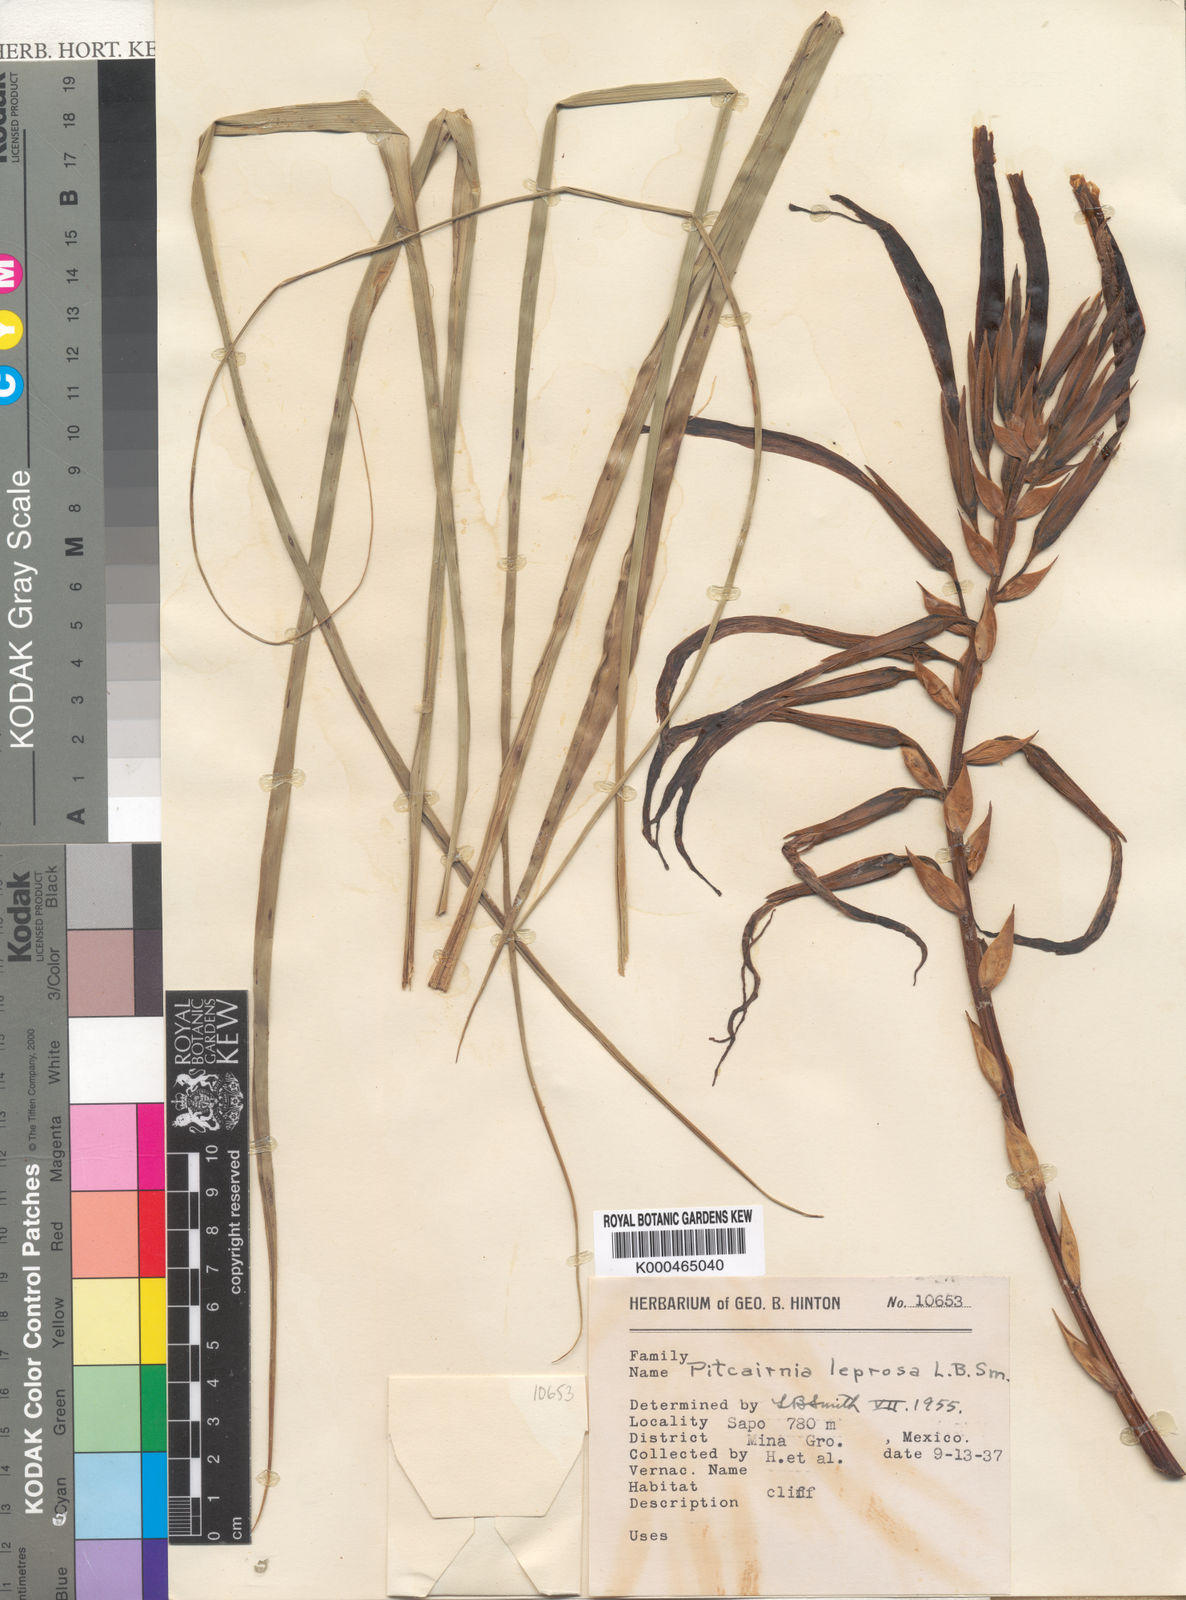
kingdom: Plantae
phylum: Tracheophyta
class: Liliopsida
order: Poales
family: Bromeliaceae
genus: Pitcairnia
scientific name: Pitcairnia leprosa
